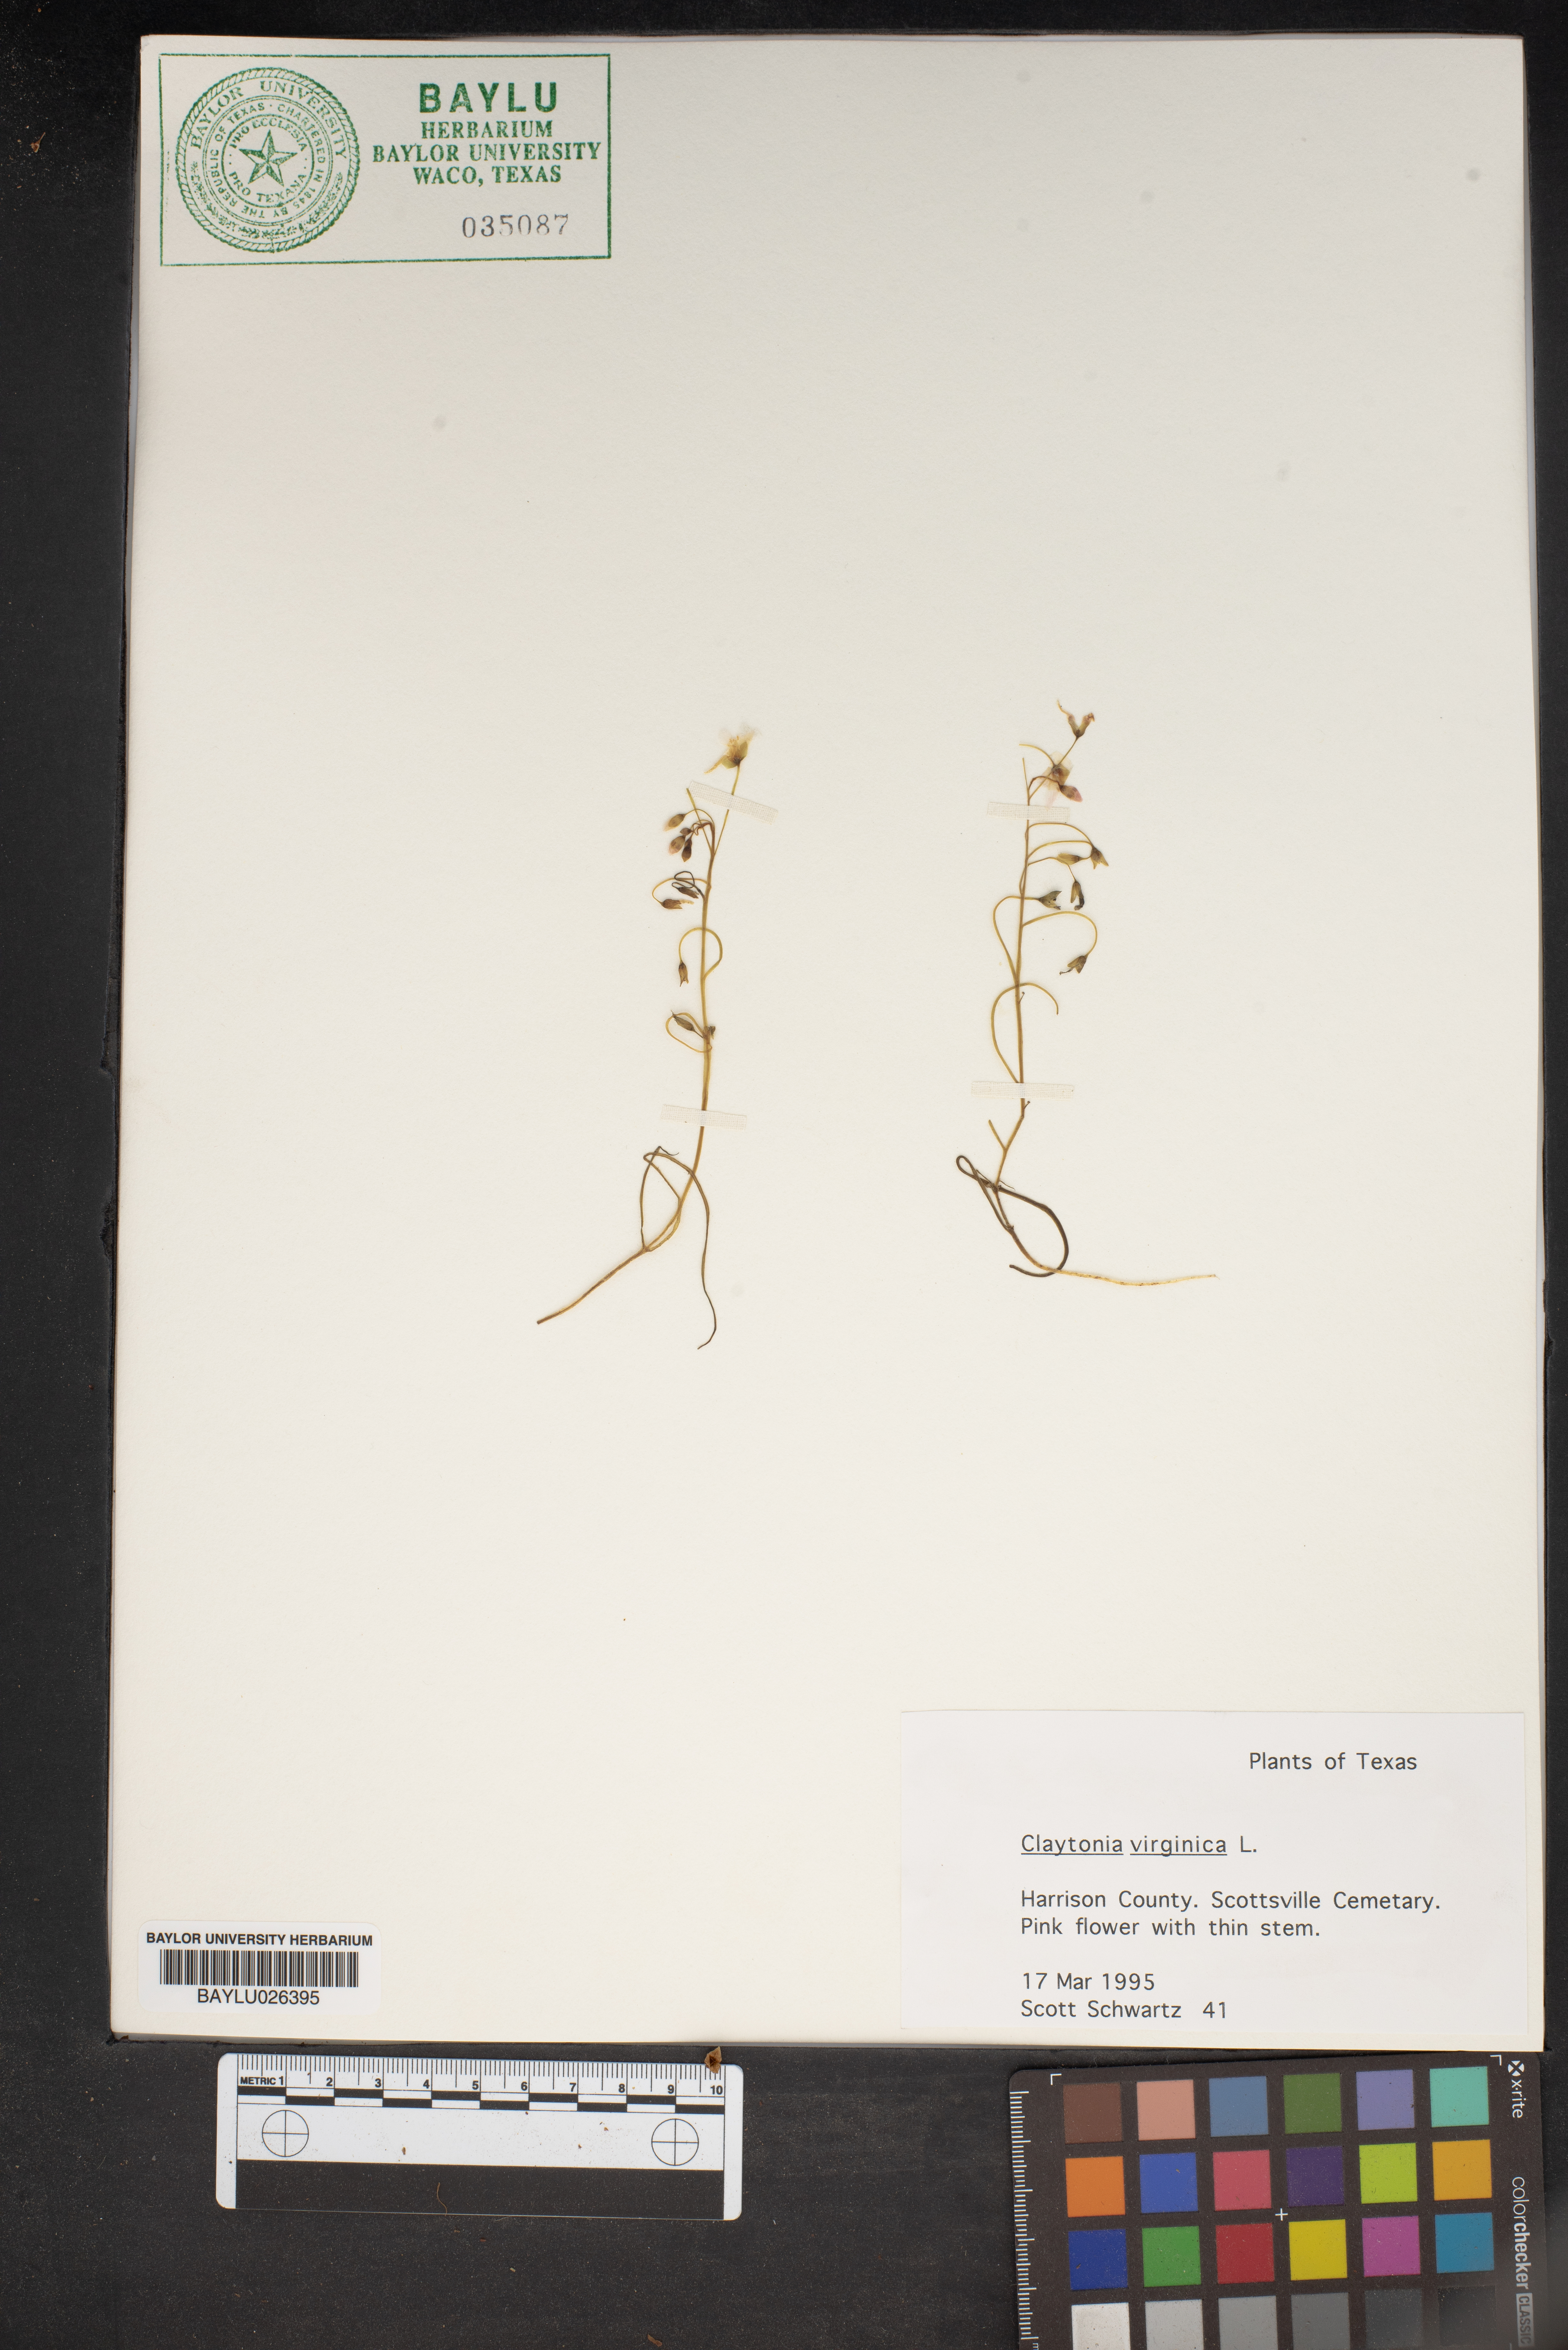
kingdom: Plantae
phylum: Tracheophyta
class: Magnoliopsida
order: Caryophyllales
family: Montiaceae
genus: Claytonia
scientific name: Claytonia virginica
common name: Virginia springbeauty
